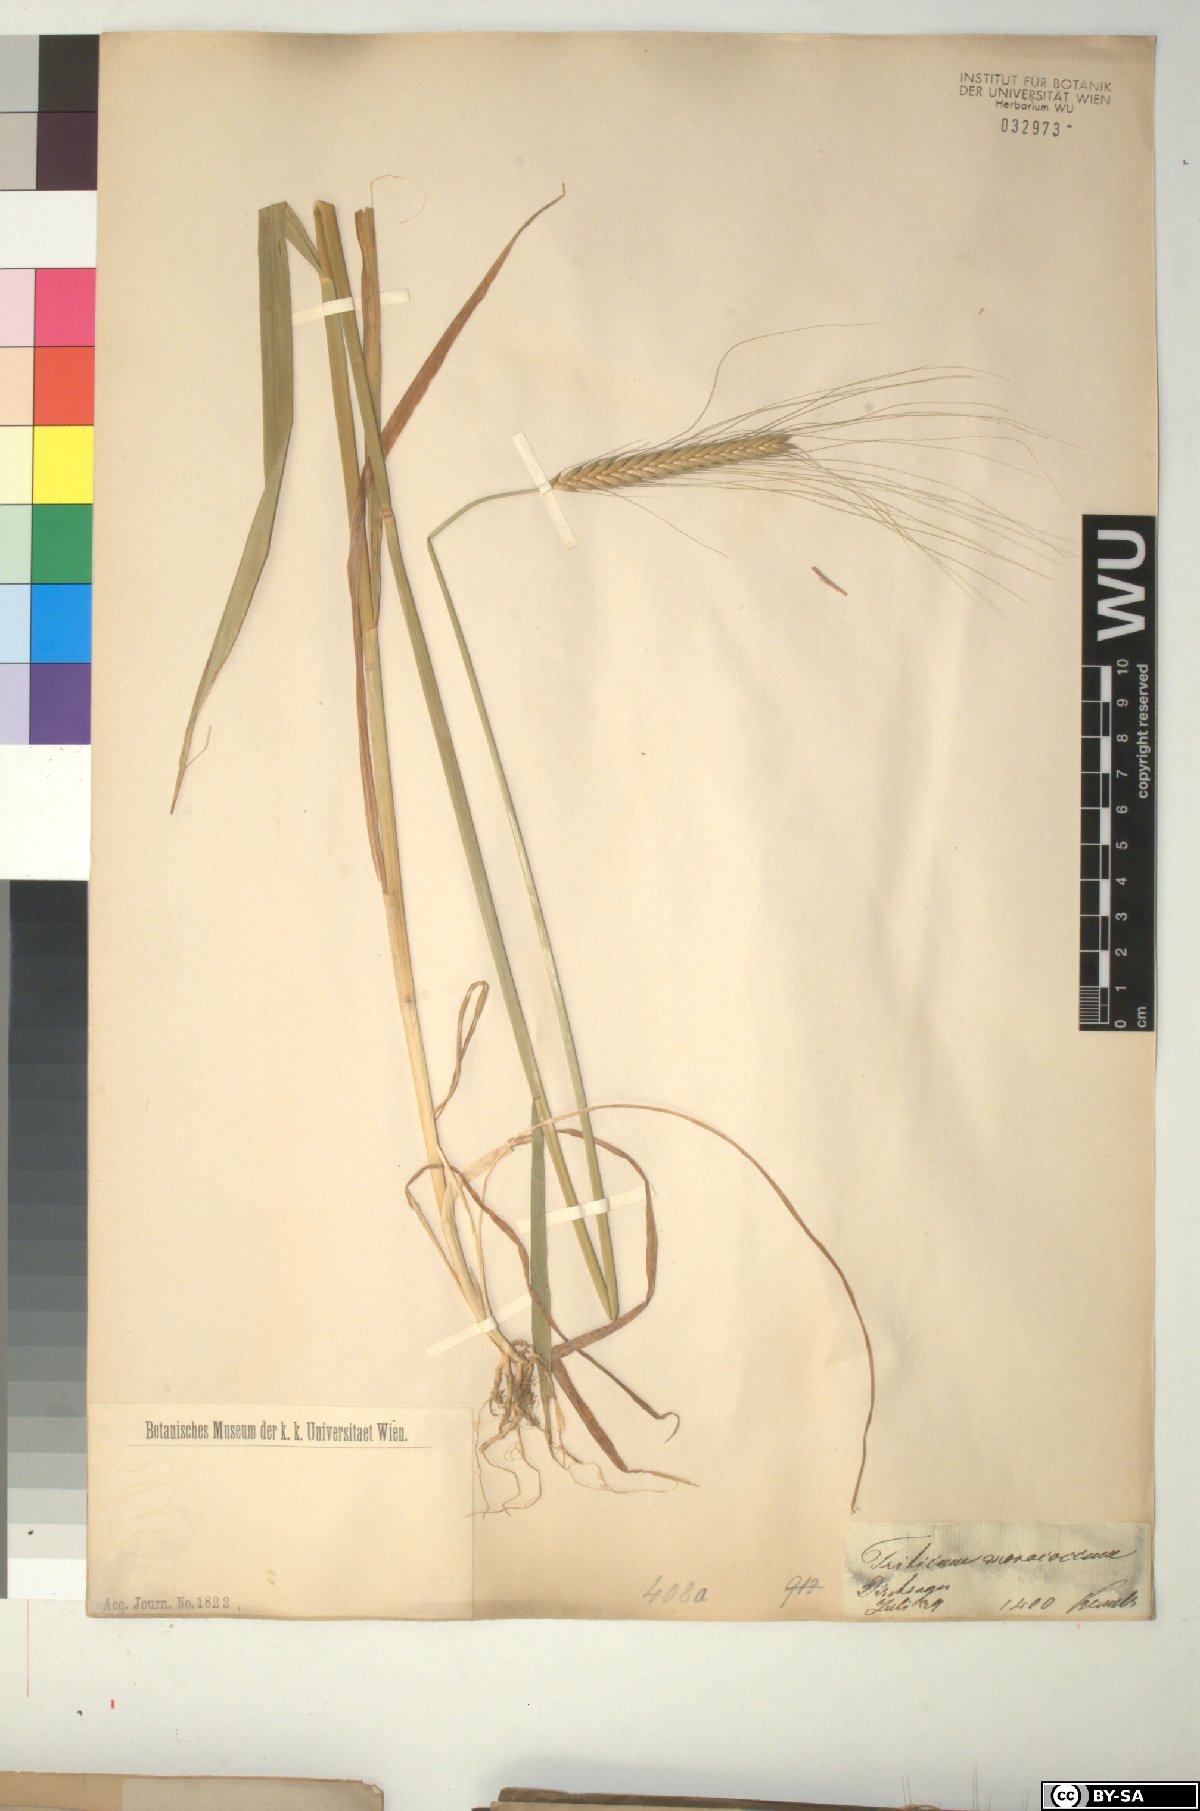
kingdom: Plantae
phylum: Tracheophyta
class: Liliopsida
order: Poales
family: Poaceae
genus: Triticum
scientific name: Triticum monococcum
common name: Einkorn
